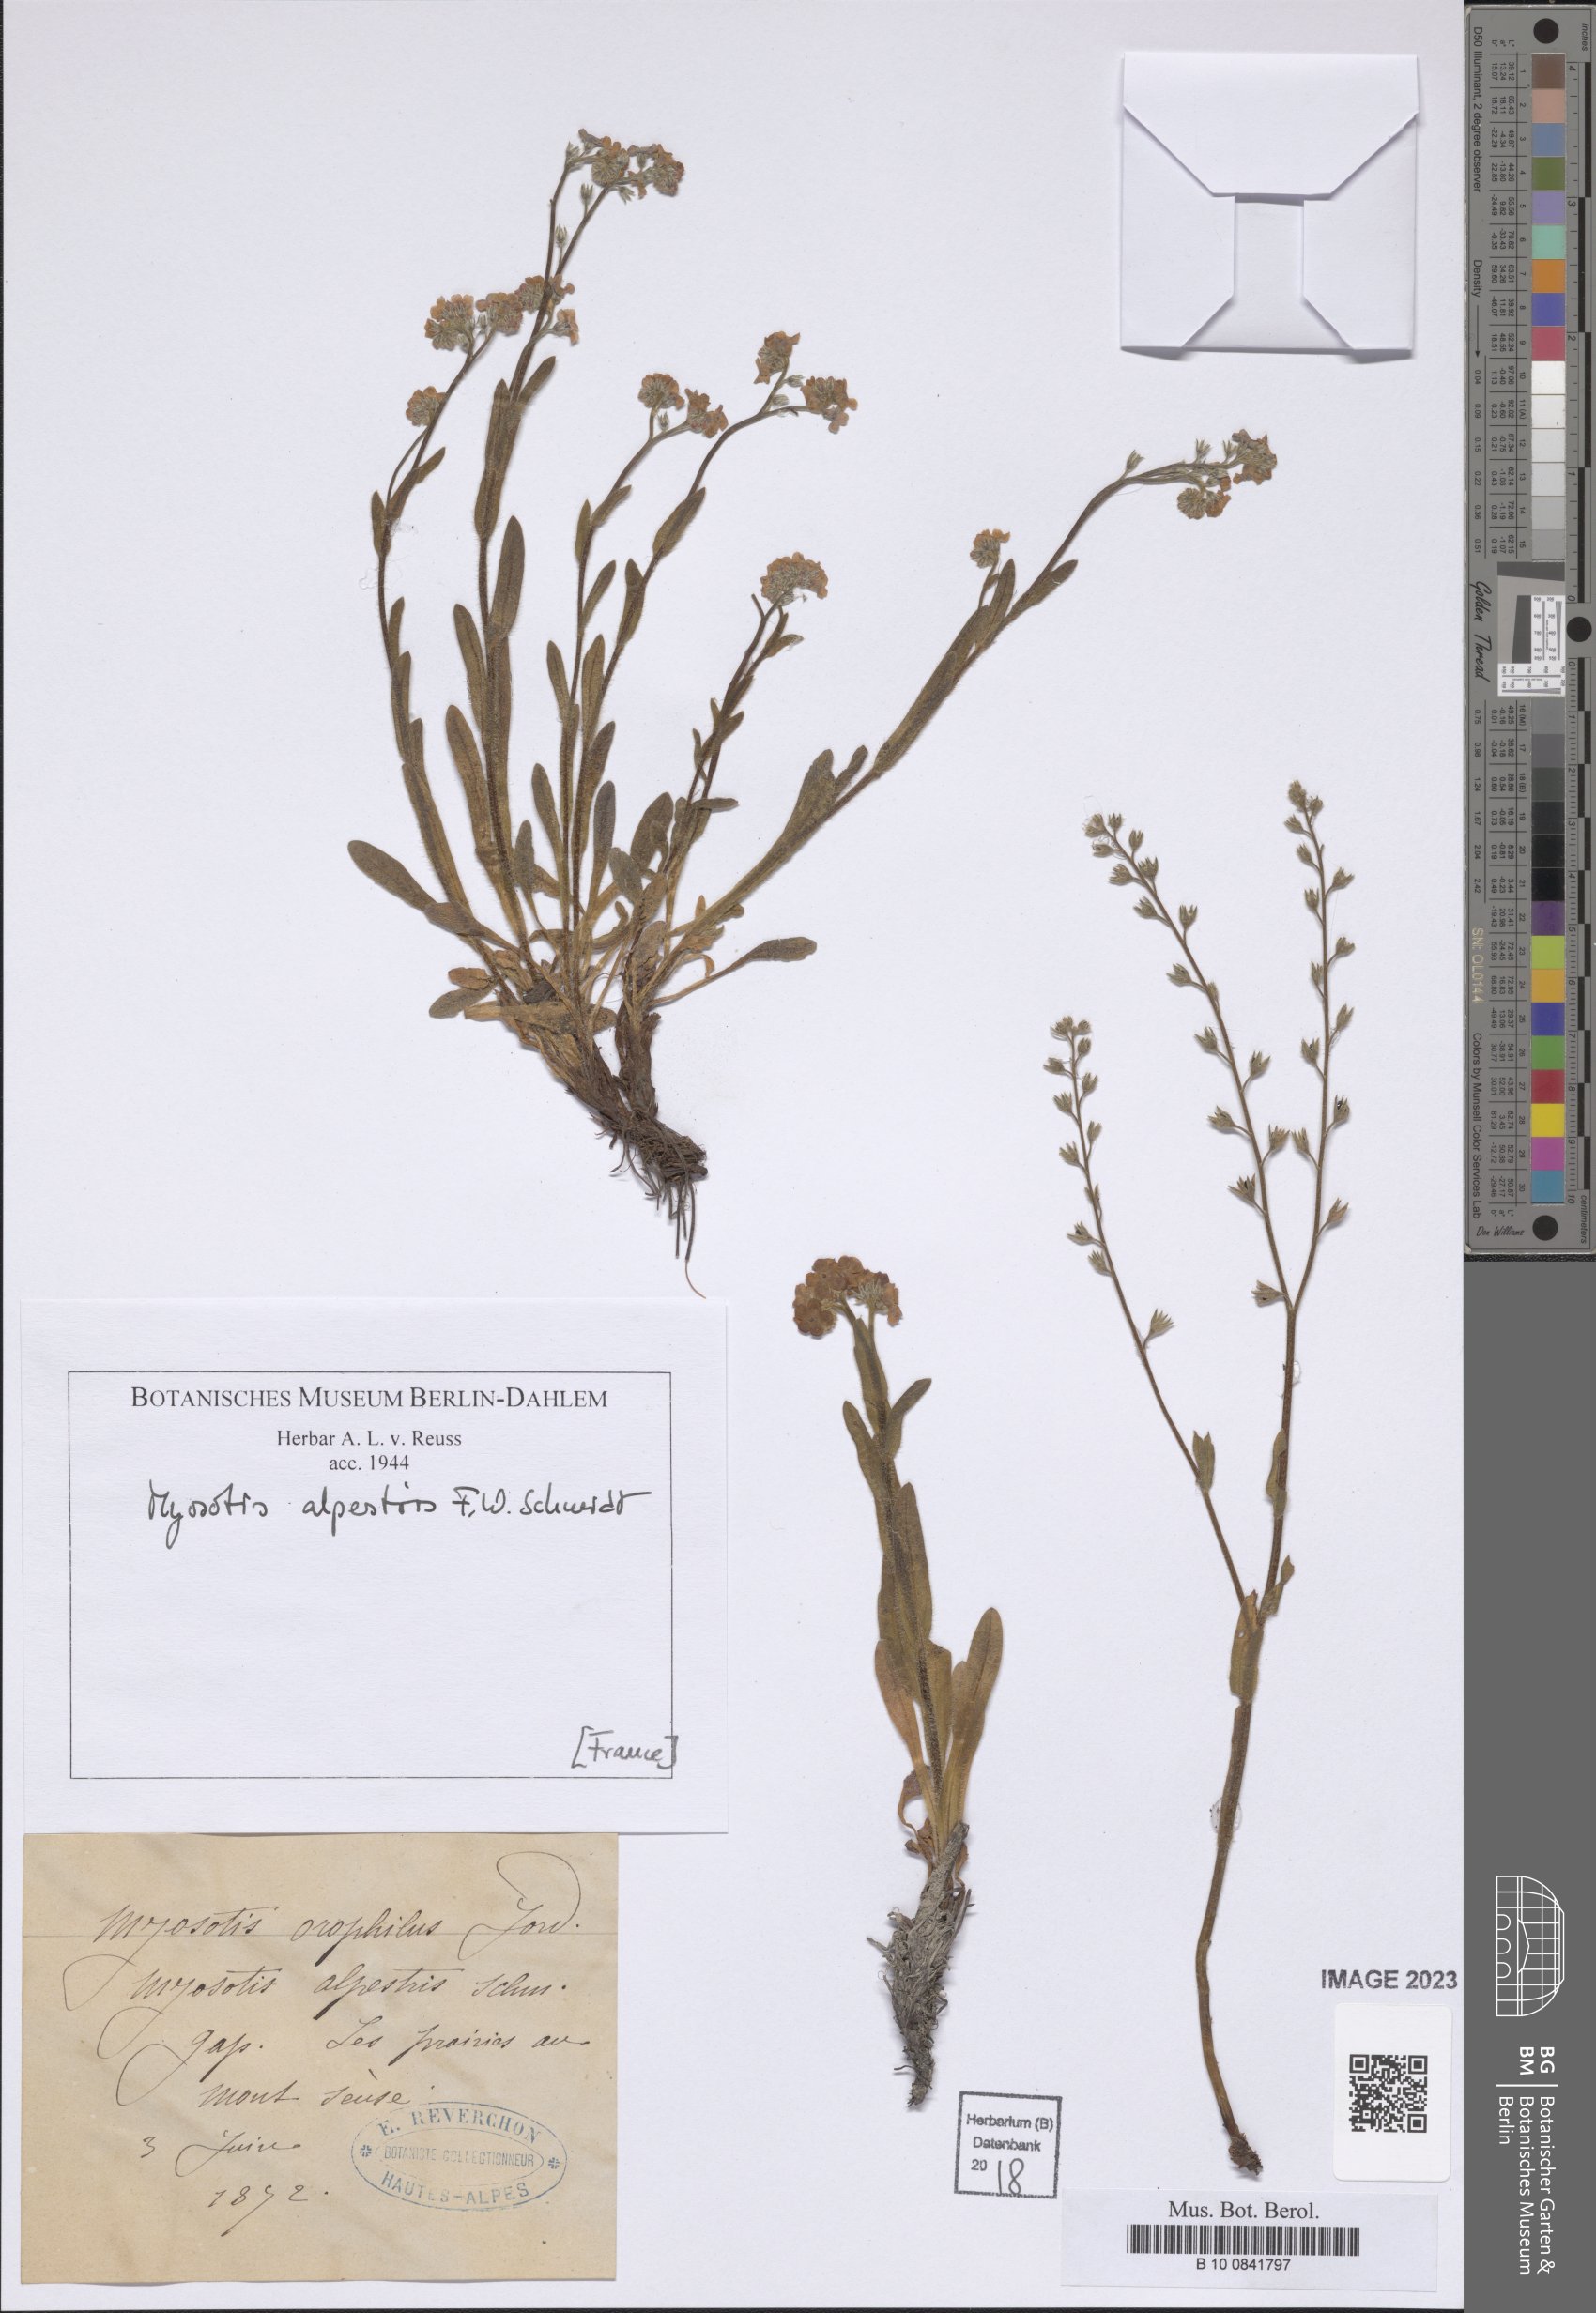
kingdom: Plantae
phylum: Tracheophyta
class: Magnoliopsida
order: Boraginales
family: Boraginaceae
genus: Myosotis
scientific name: Myosotis alpestris
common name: Alpine forget-me-not
